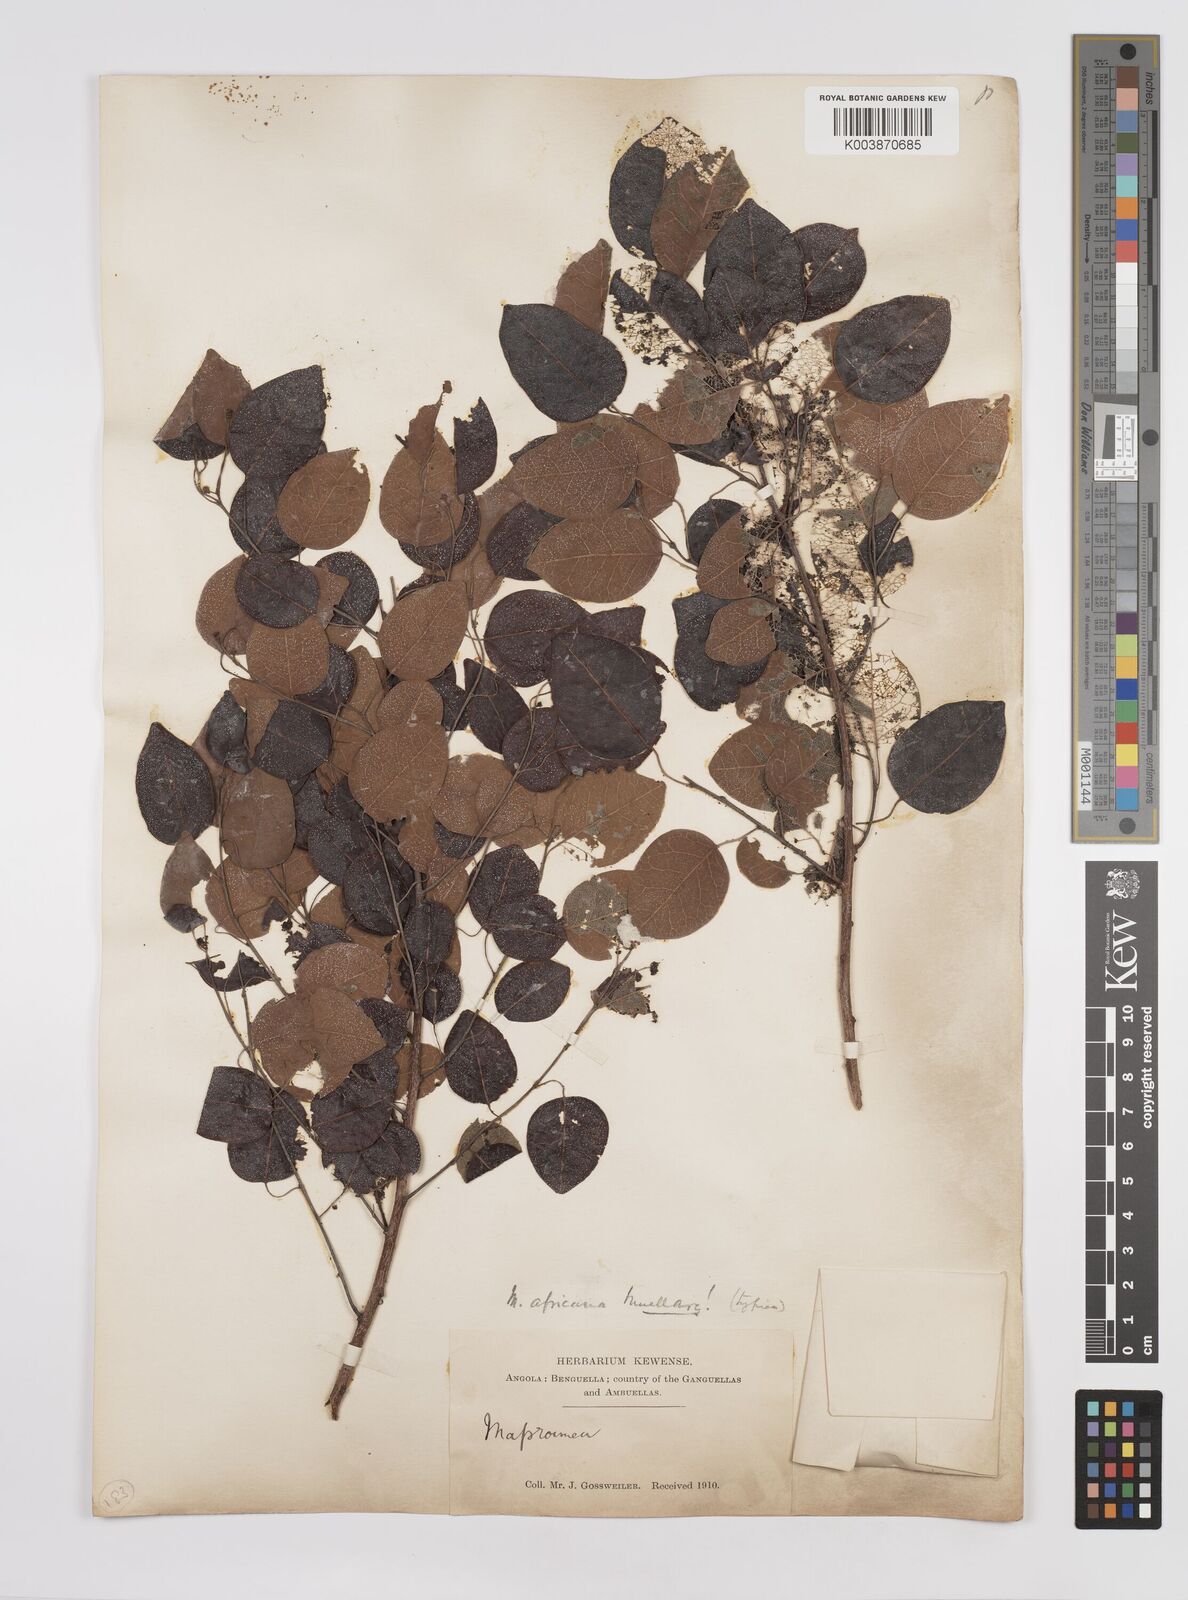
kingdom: Plantae
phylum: Tracheophyta
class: Magnoliopsida
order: Malpighiales
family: Euphorbiaceae
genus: Maprounea
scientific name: Maprounea africana
